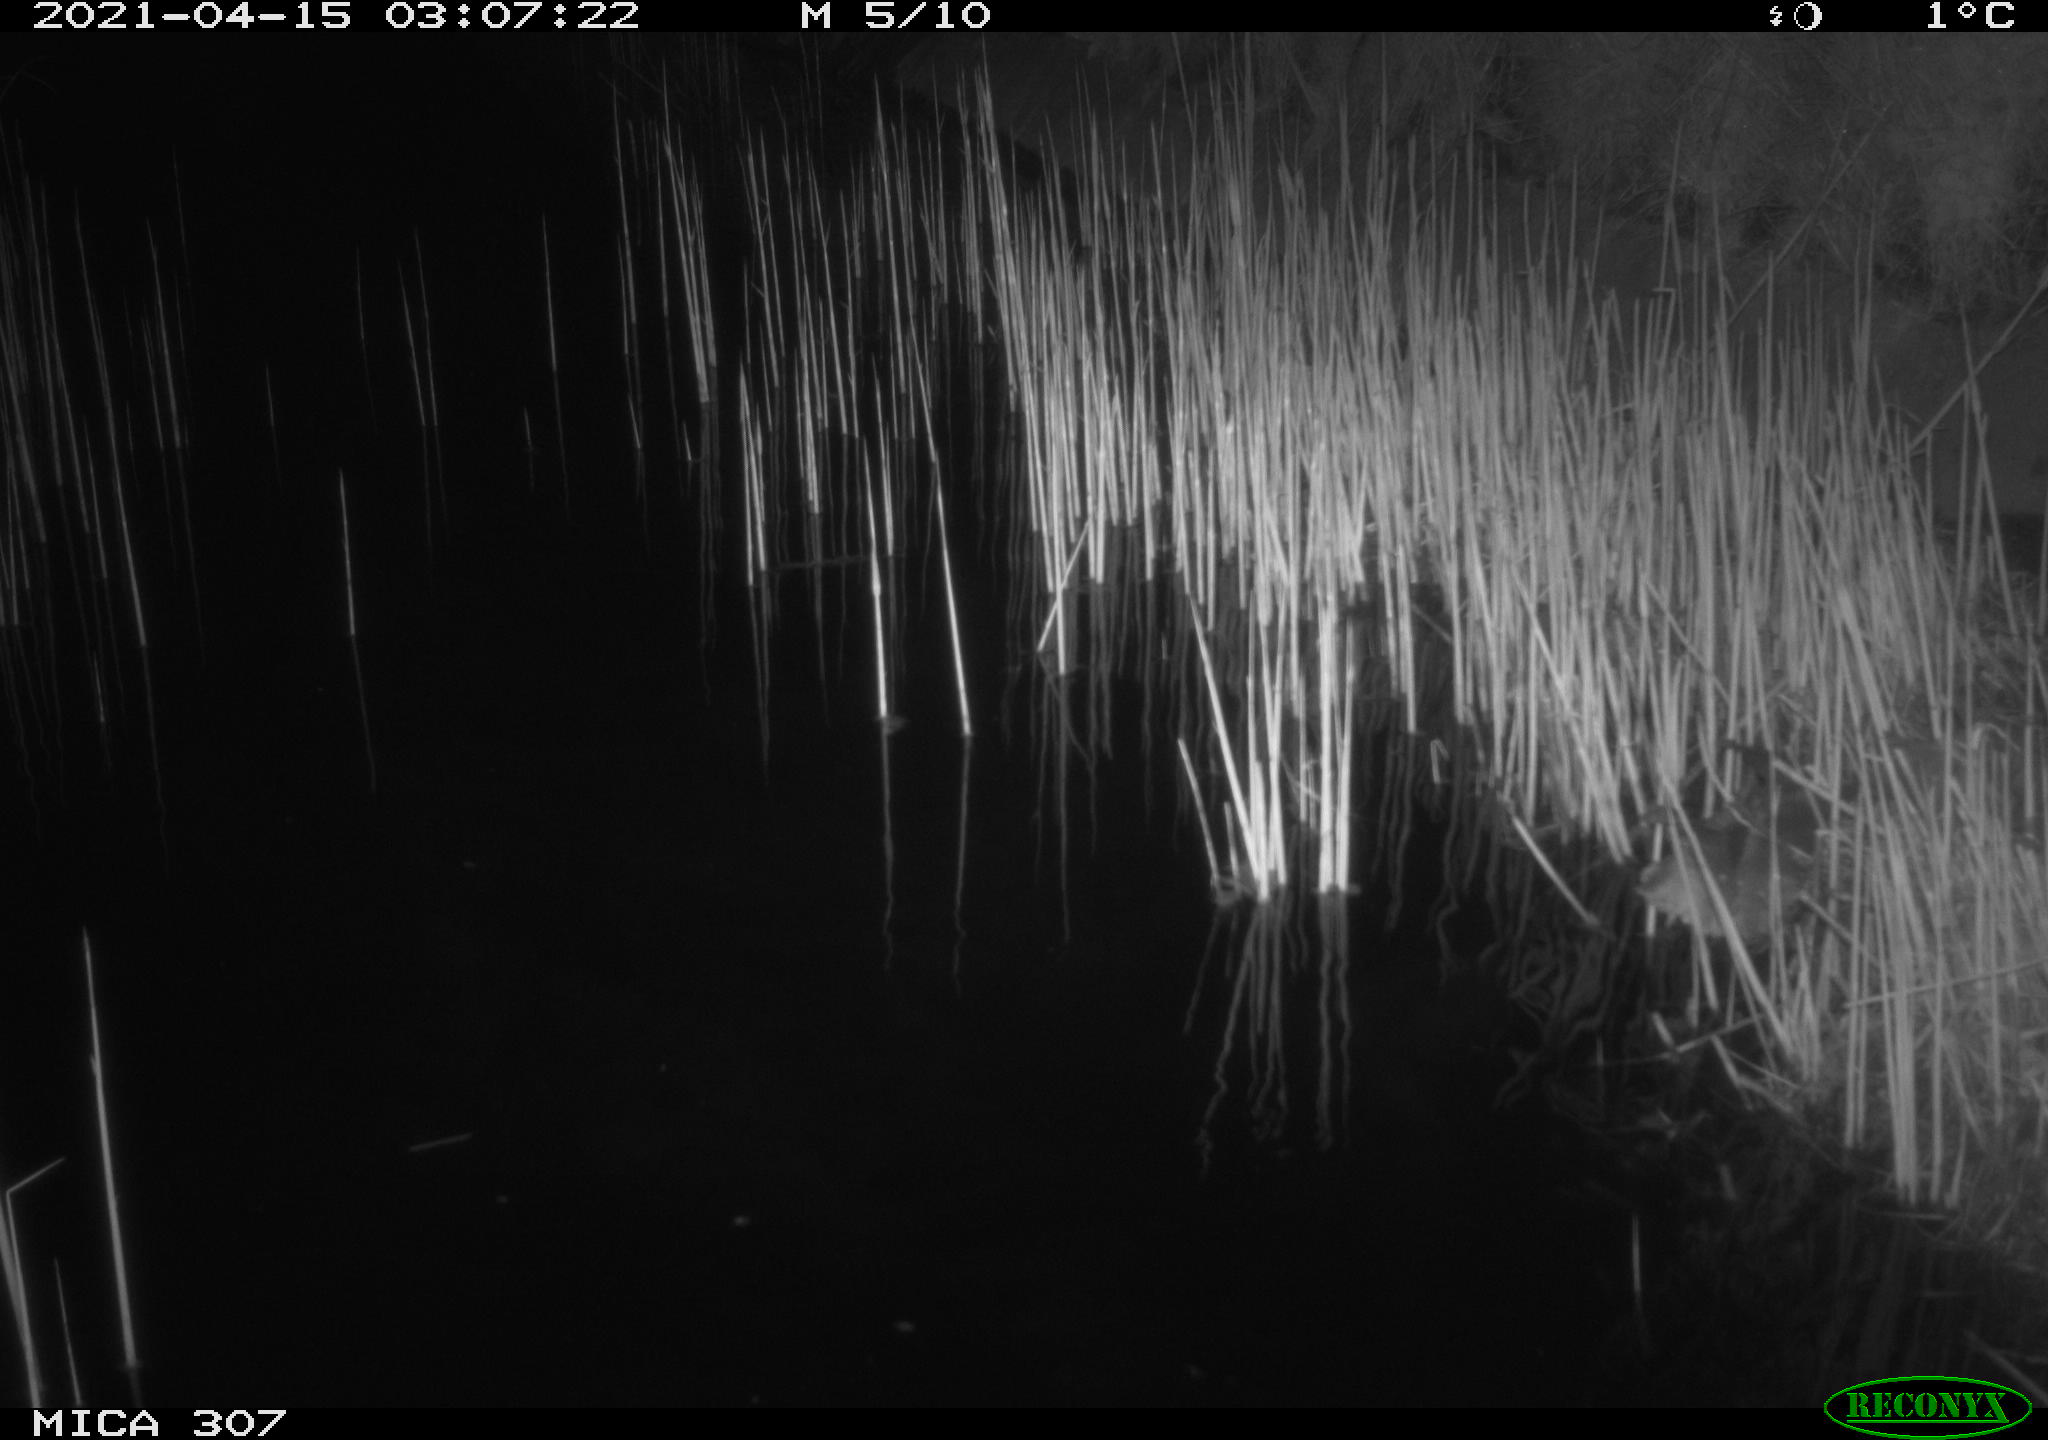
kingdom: Animalia
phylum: Chordata
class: Mammalia
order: Rodentia
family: Muridae
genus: Rattus
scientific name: Rattus norvegicus
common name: Brown rat
